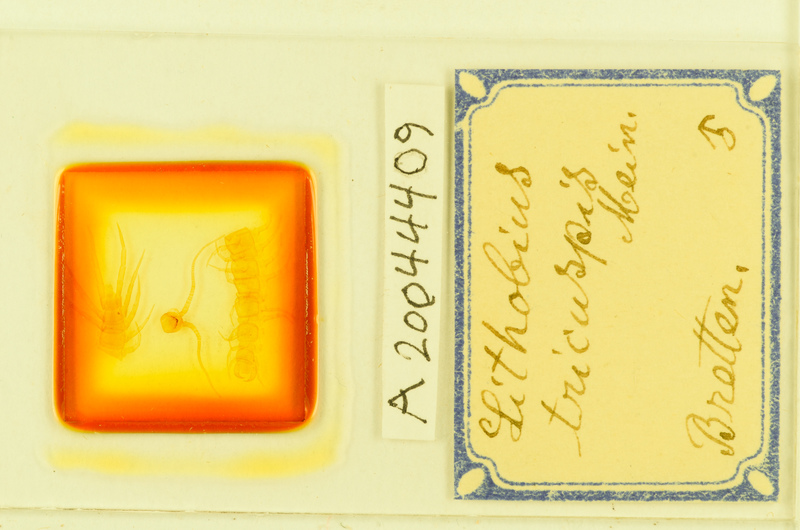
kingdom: Animalia
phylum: Arthropoda
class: Chilopoda
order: Lithobiomorpha
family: Lithobiidae
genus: Lithobius
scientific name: Lithobius tricuspis
